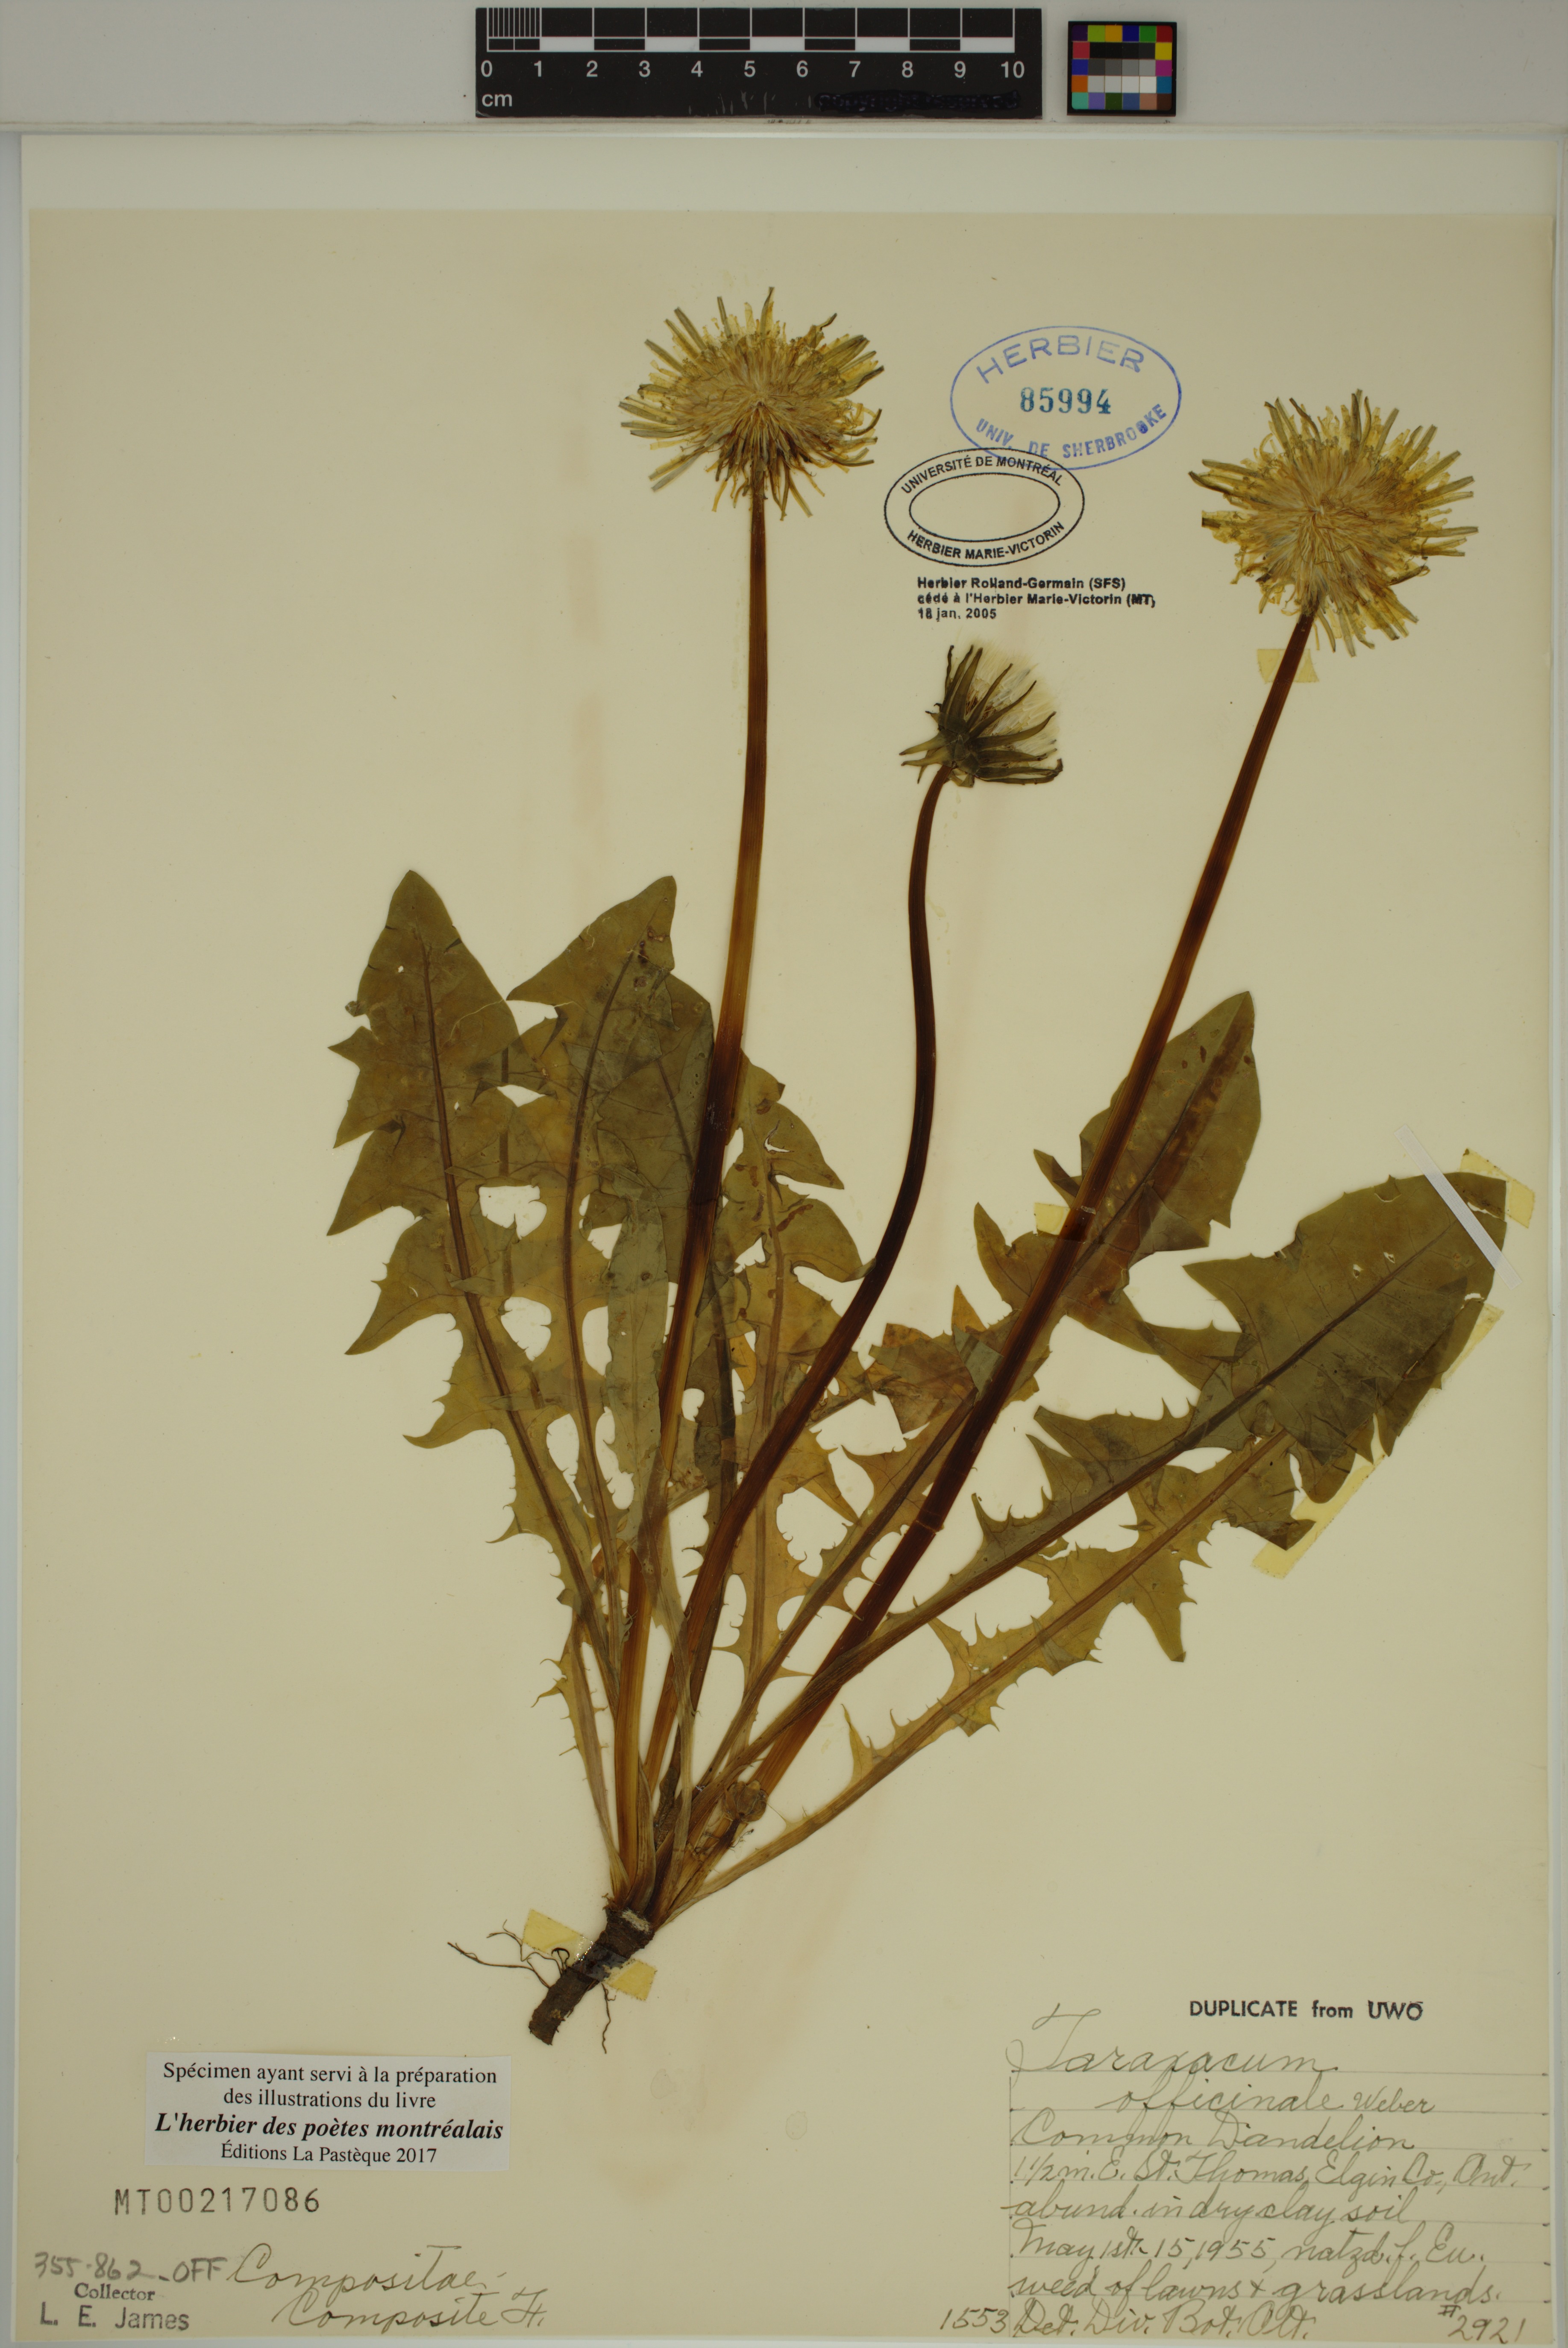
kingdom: Plantae
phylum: Tracheophyta
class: Magnoliopsida
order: Asterales
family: Asteraceae
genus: Taraxacum
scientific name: Taraxacum officinale
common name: Common dandelion
